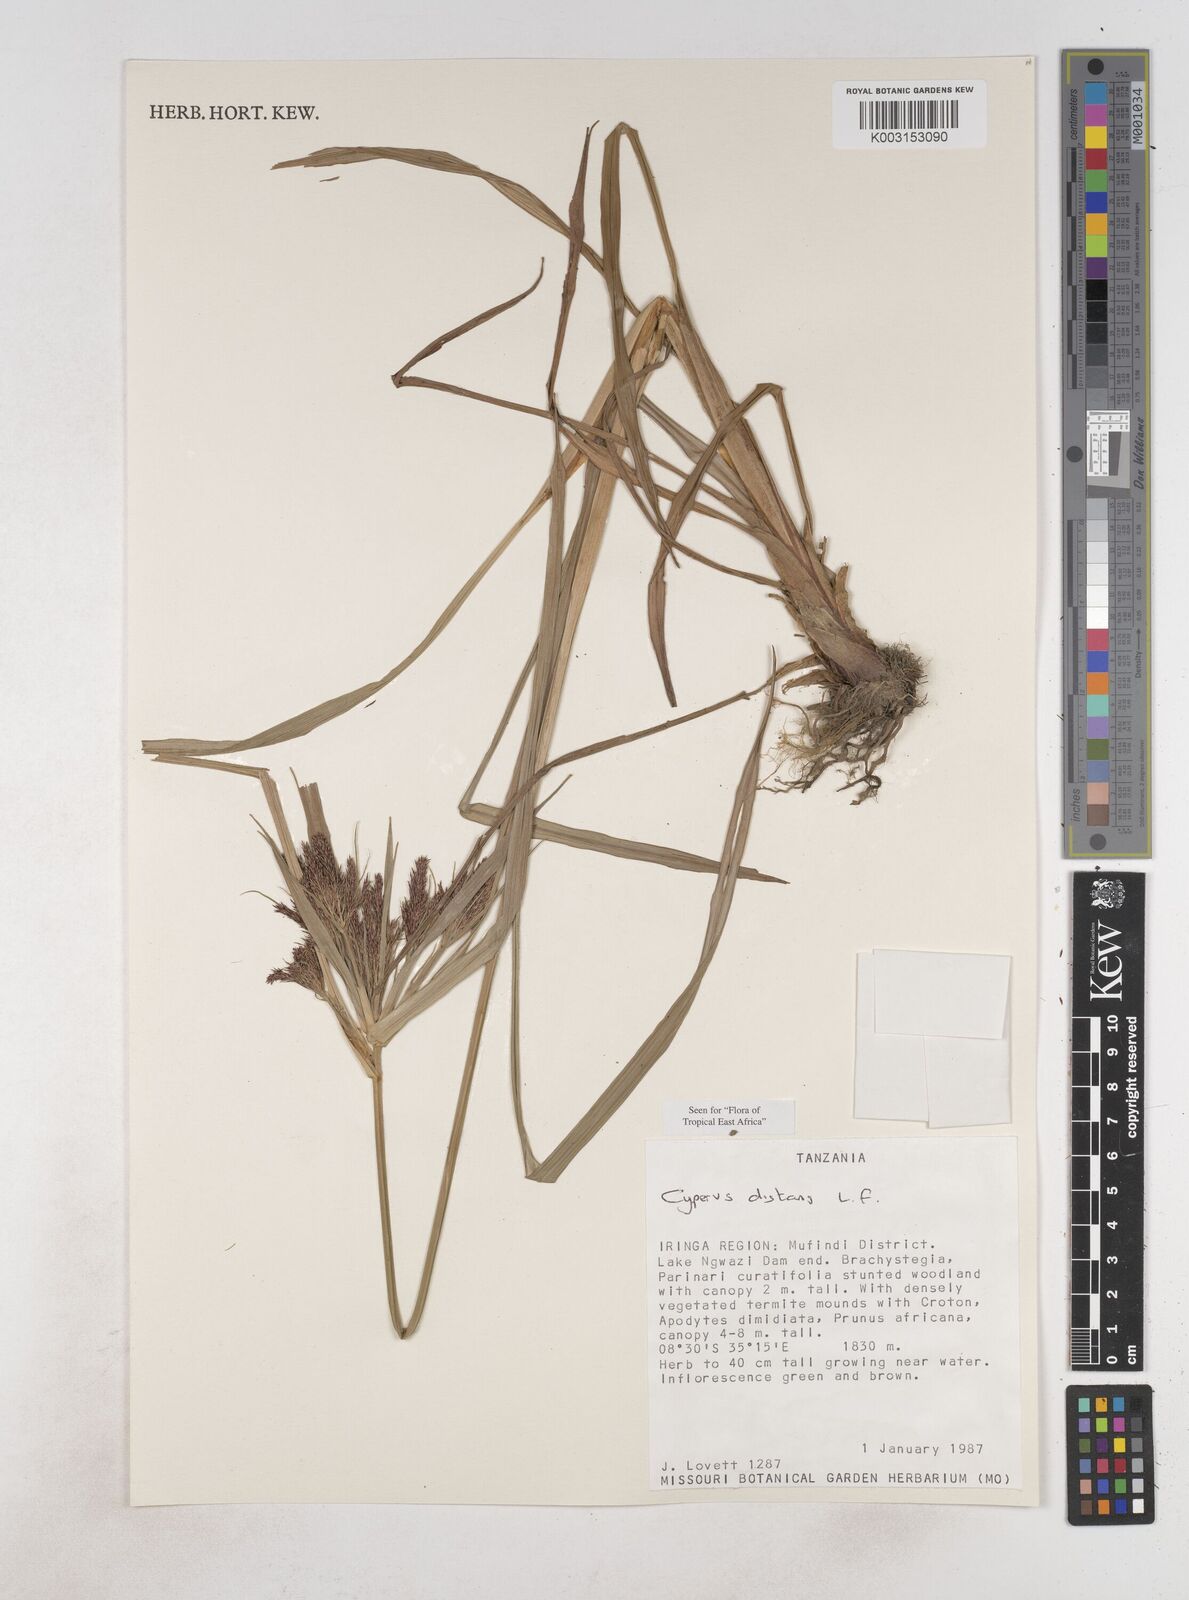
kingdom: Plantae
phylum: Tracheophyta
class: Liliopsida
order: Poales
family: Cyperaceae
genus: Cyperus
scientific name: Cyperus distans
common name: Slender cyperus
